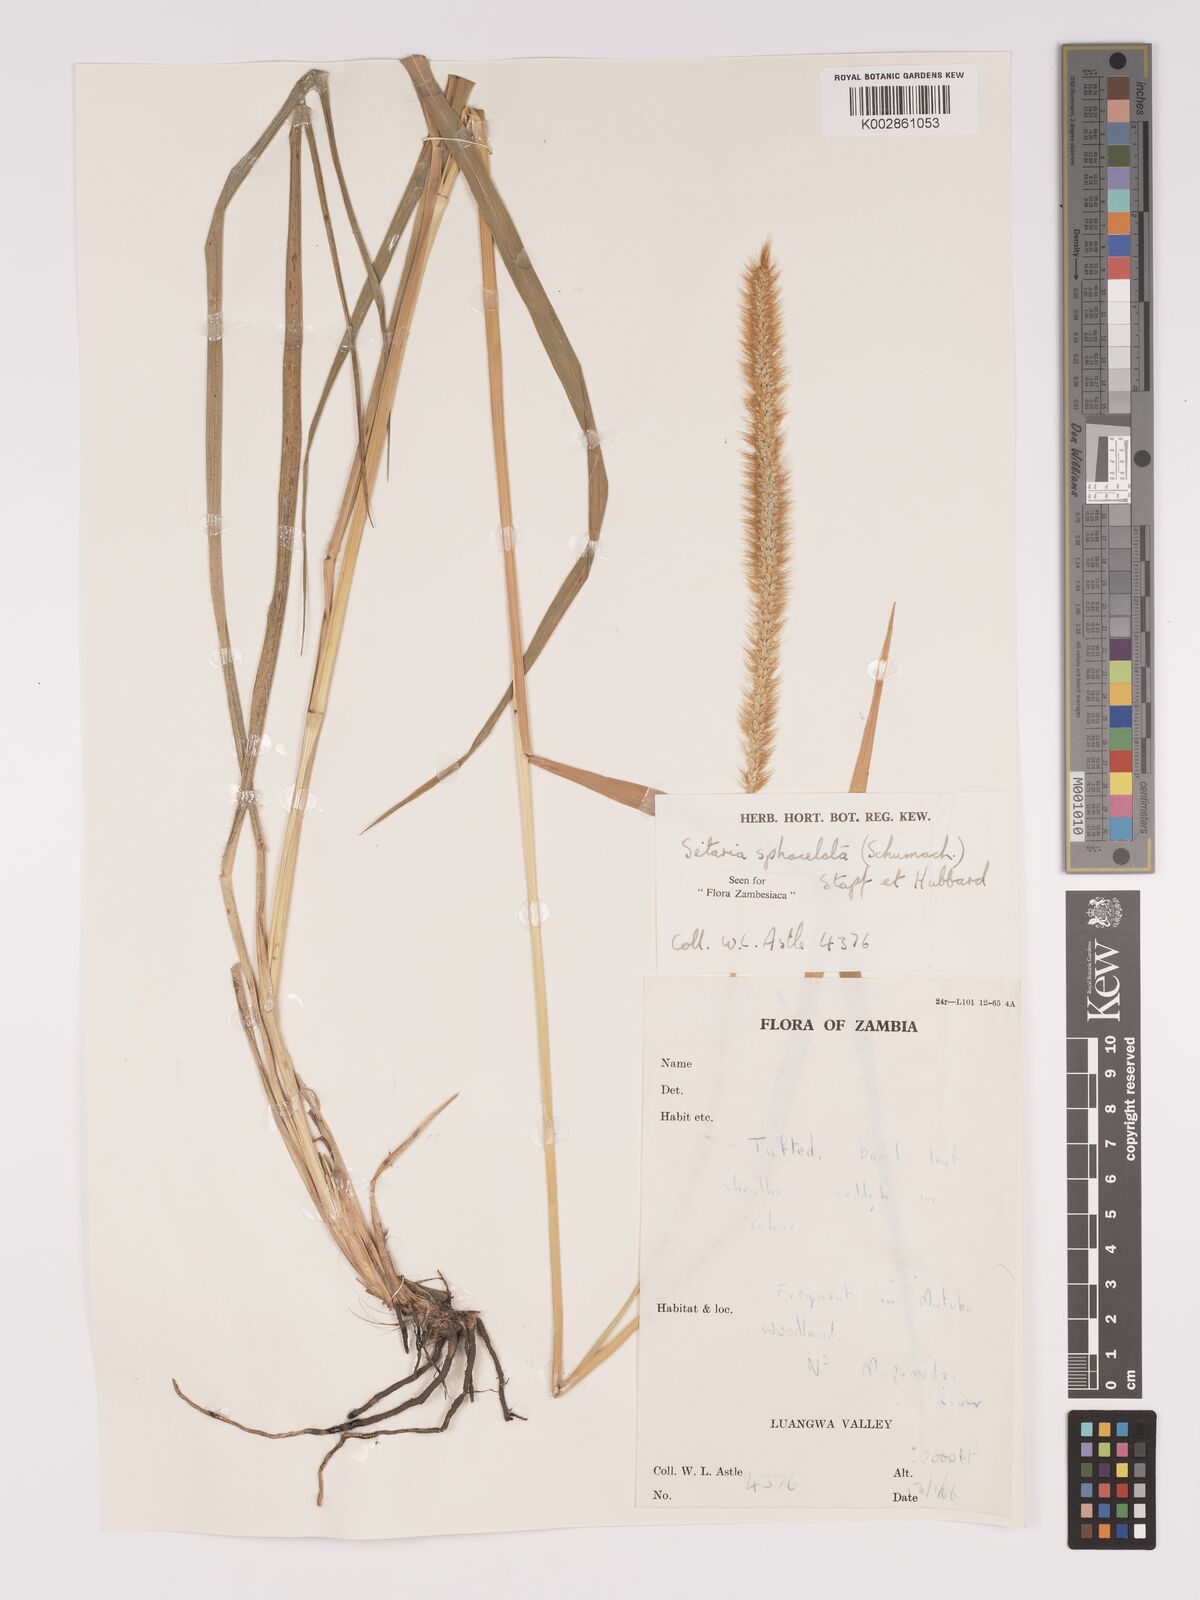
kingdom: Plantae
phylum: Tracheophyta
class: Liliopsida
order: Poales
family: Poaceae
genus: Setaria
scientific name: Setaria sphacelata
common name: African bristlegrass
